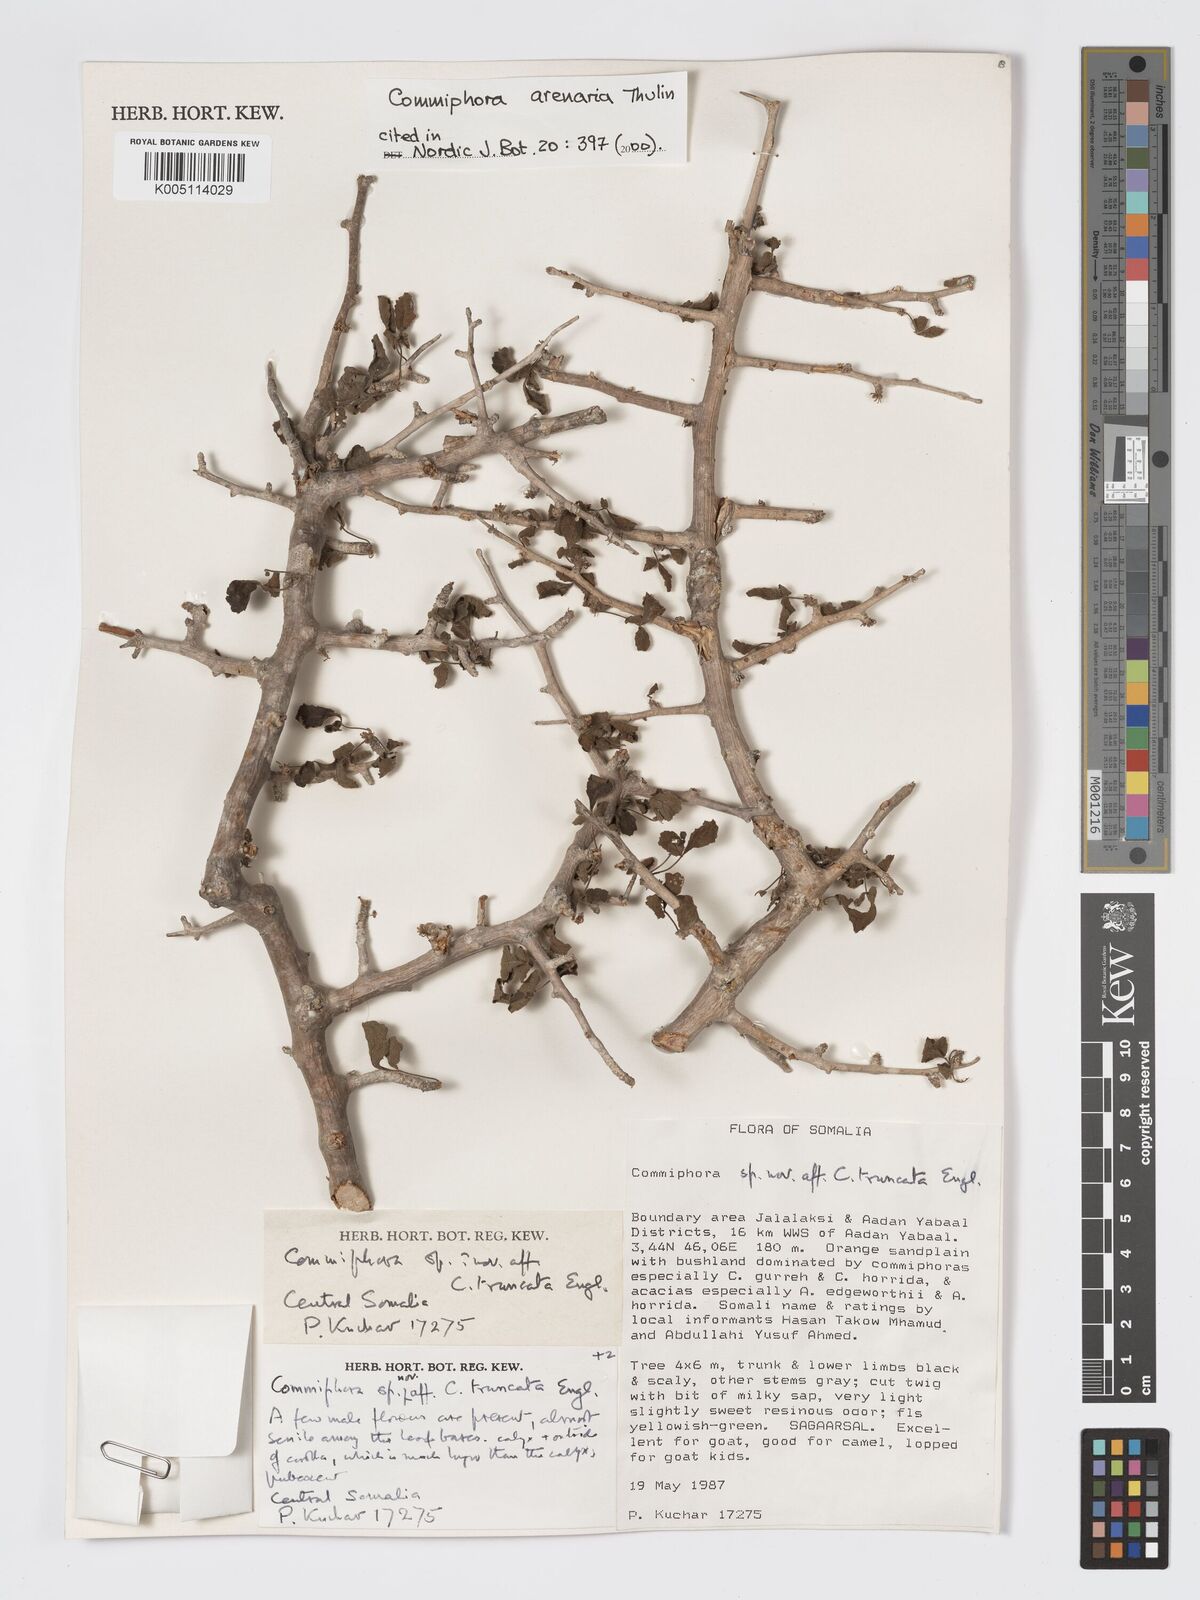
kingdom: Plantae
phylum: Tracheophyta
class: Magnoliopsida
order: Sapindales
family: Burseraceae
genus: Commiphora
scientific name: Commiphora arenaria
